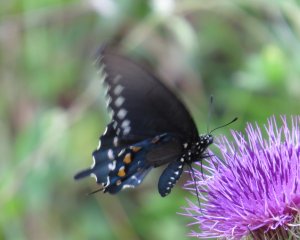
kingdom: Animalia
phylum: Arthropoda
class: Insecta
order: Lepidoptera
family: Papilionidae
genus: Battus
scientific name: Battus philenor
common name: Pipevine Swallowtail
